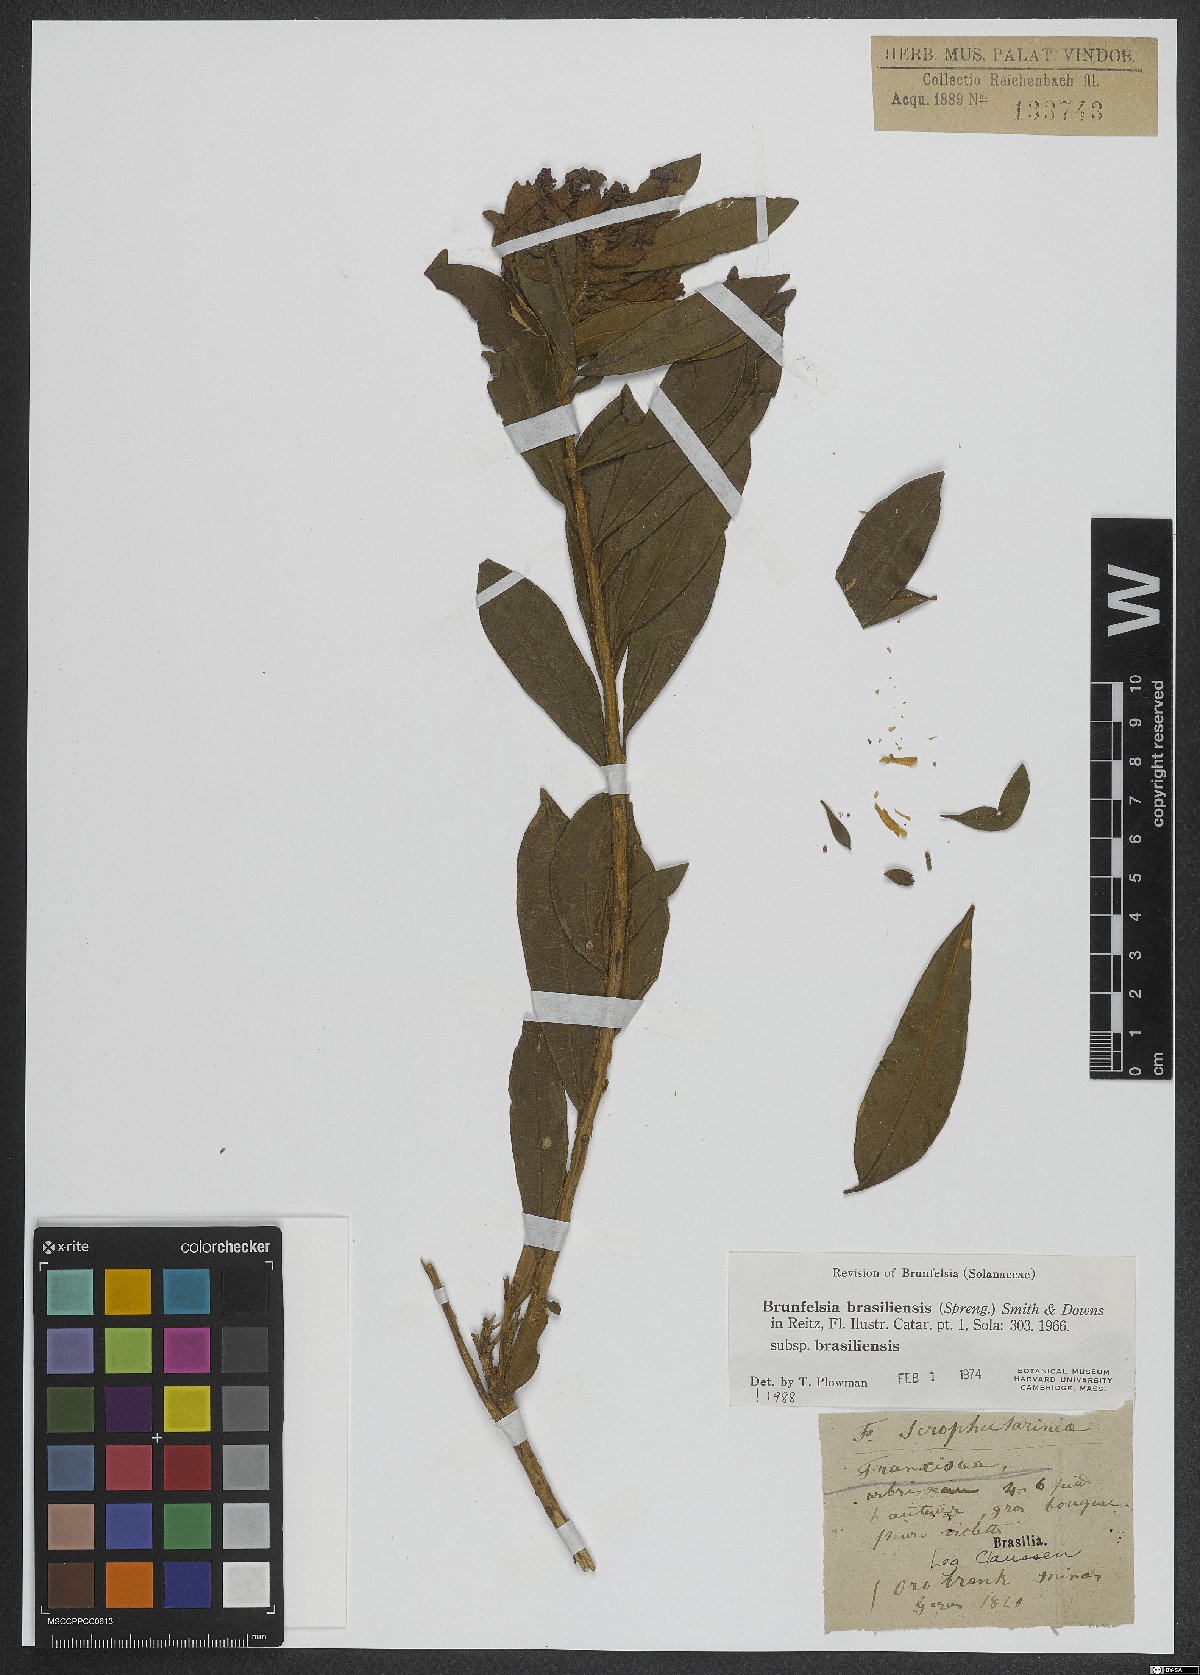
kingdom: Plantae
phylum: Tracheophyta
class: Magnoliopsida
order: Solanales
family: Solanaceae
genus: Brunfelsia
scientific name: Brunfelsia brasiliensis
